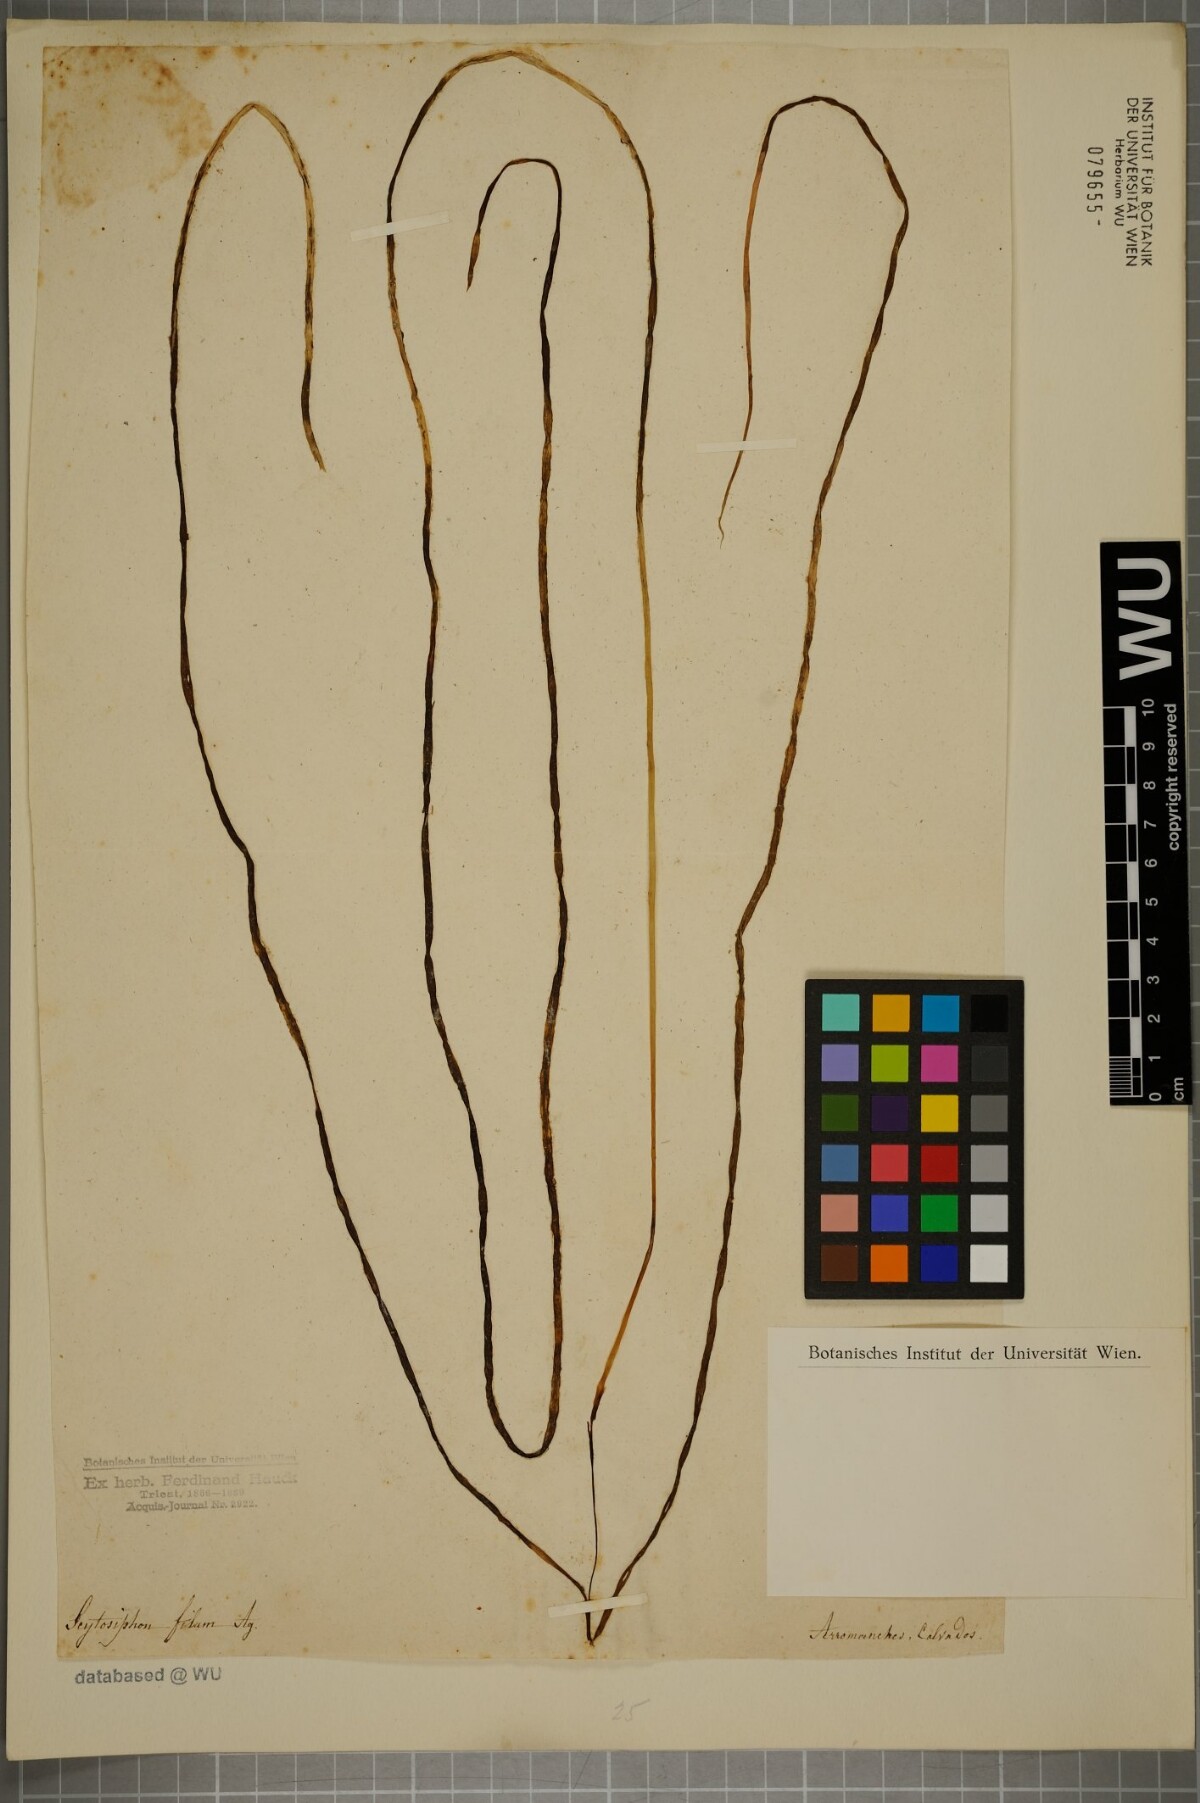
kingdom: Chromista
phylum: Ochrophyta
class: Phaeophyceae
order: Laminariales
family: Chordaceae
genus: Chorda
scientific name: Chorda filum
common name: Mermaid's tresses
